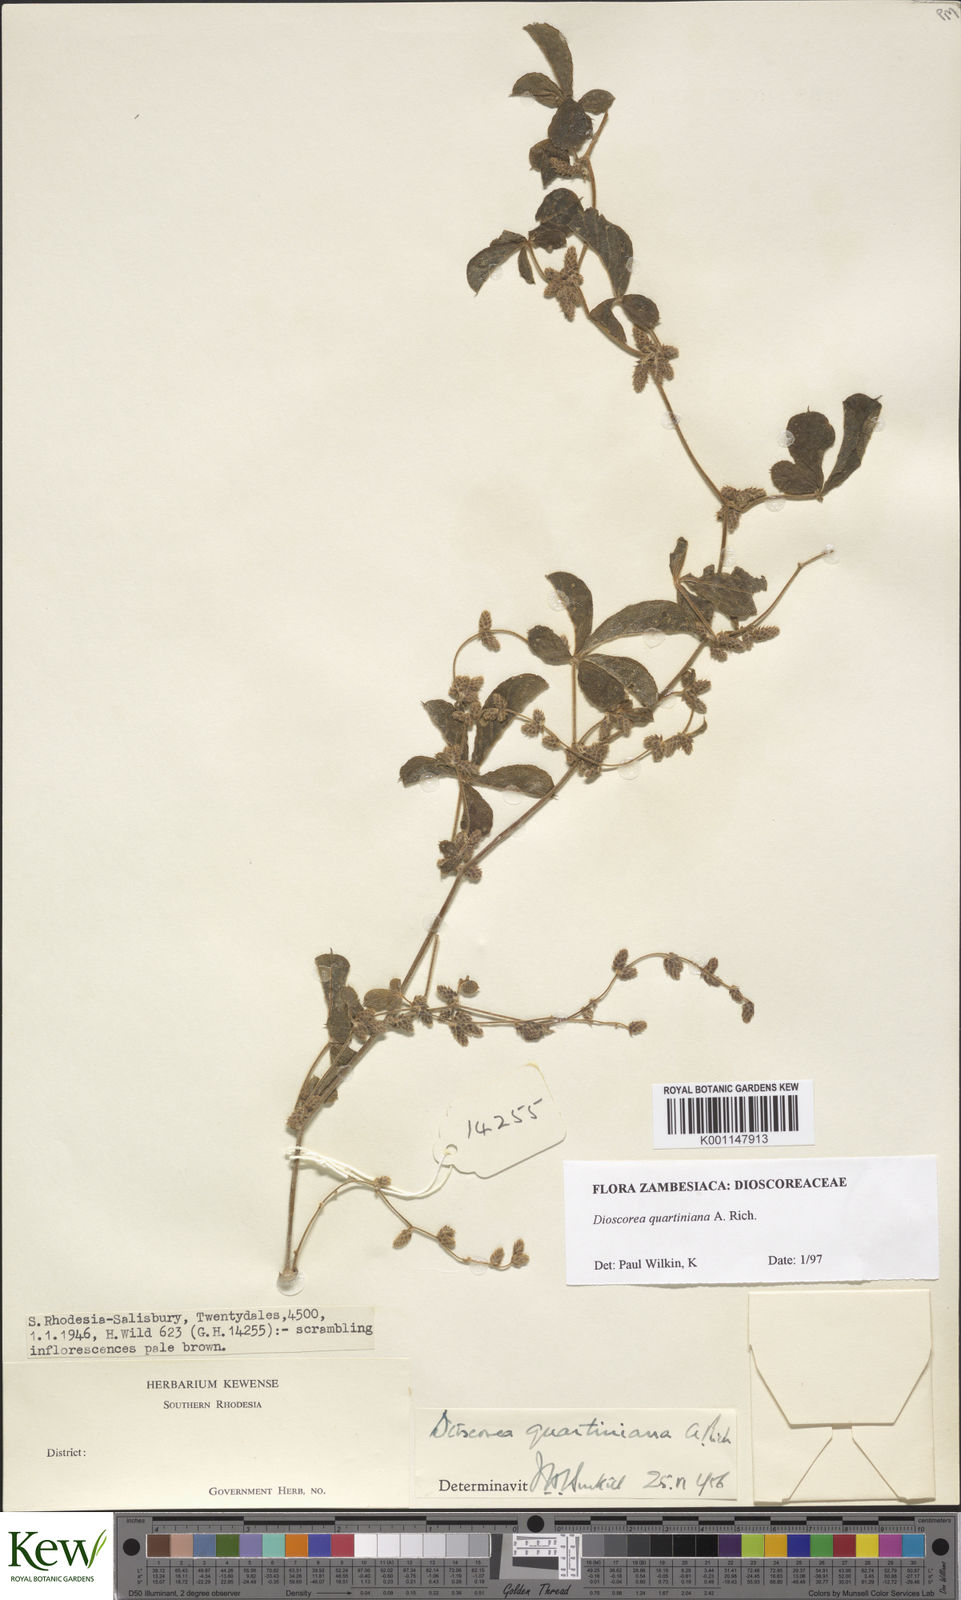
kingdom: Plantae
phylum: Tracheophyta
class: Liliopsida
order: Dioscoreales
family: Dioscoreaceae
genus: Dioscorea
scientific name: Dioscorea quartiniana
